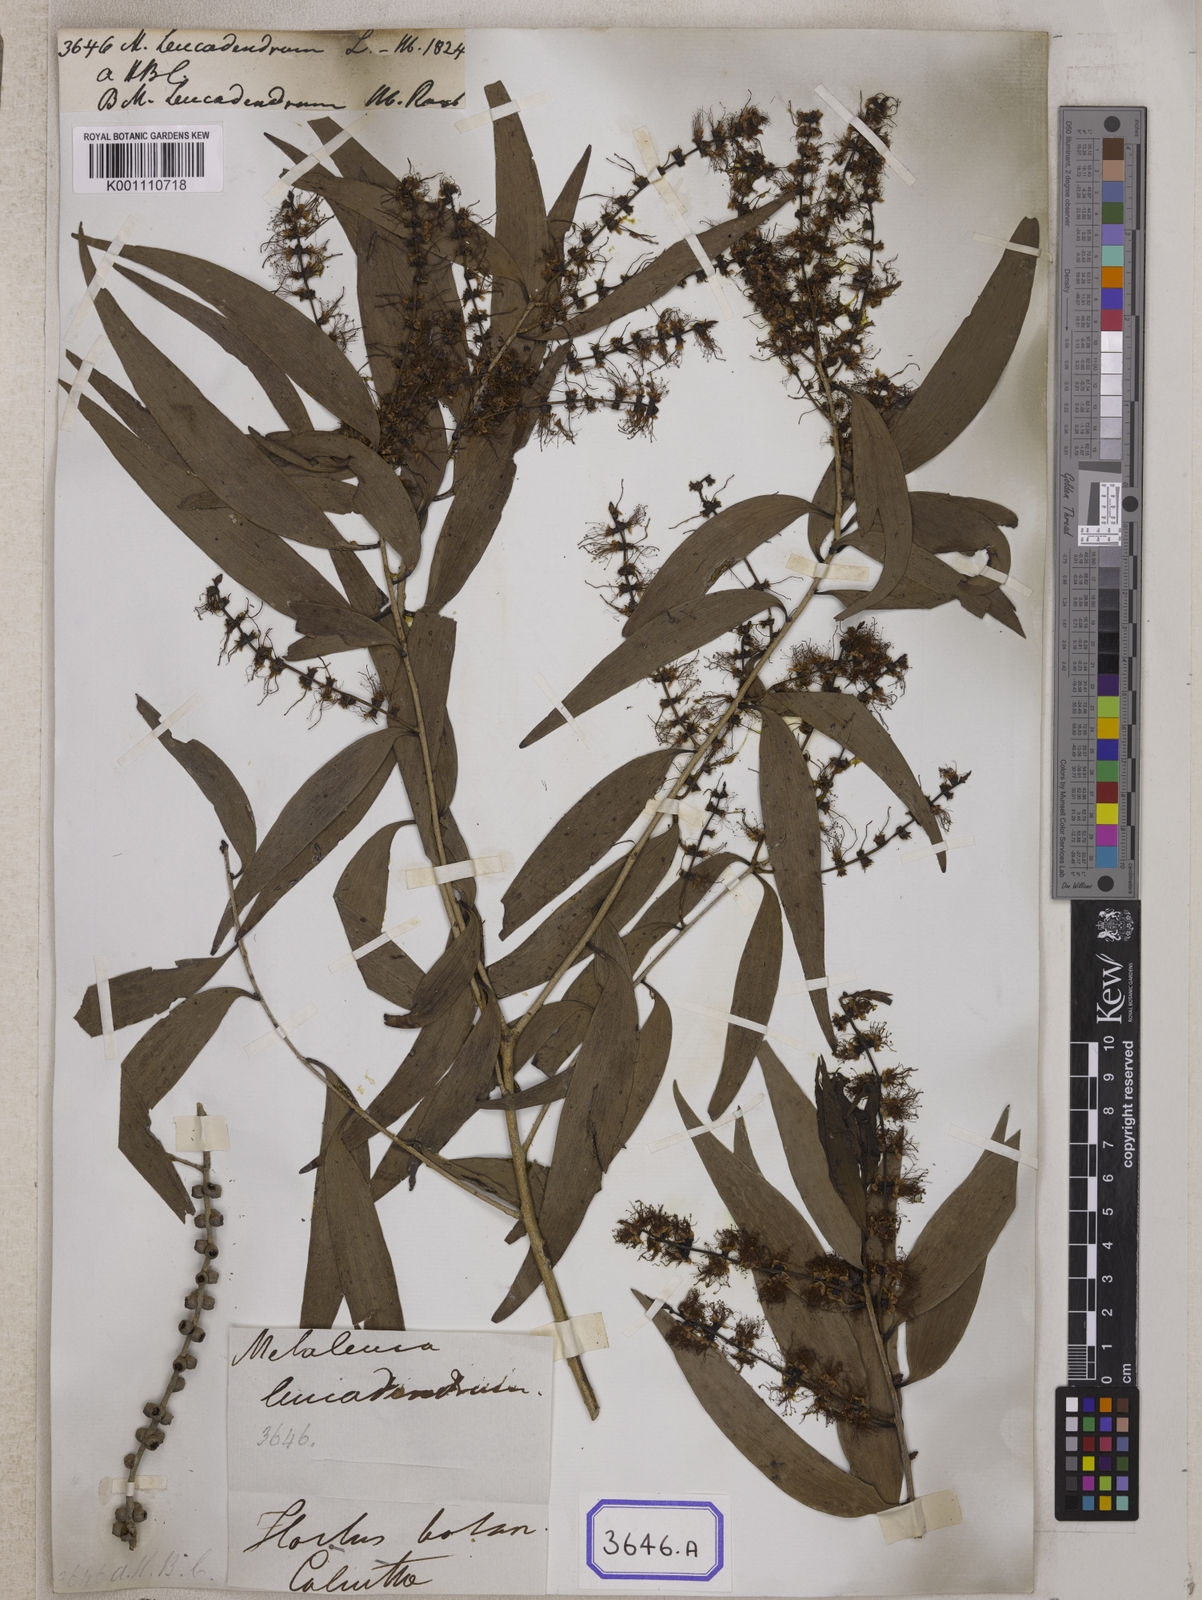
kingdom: Plantae
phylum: Tracheophyta
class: Magnoliopsida
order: Myrtales
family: Myrtaceae
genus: Melaleuca
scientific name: Melaleuca leucadendra
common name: Weeping paperbark
